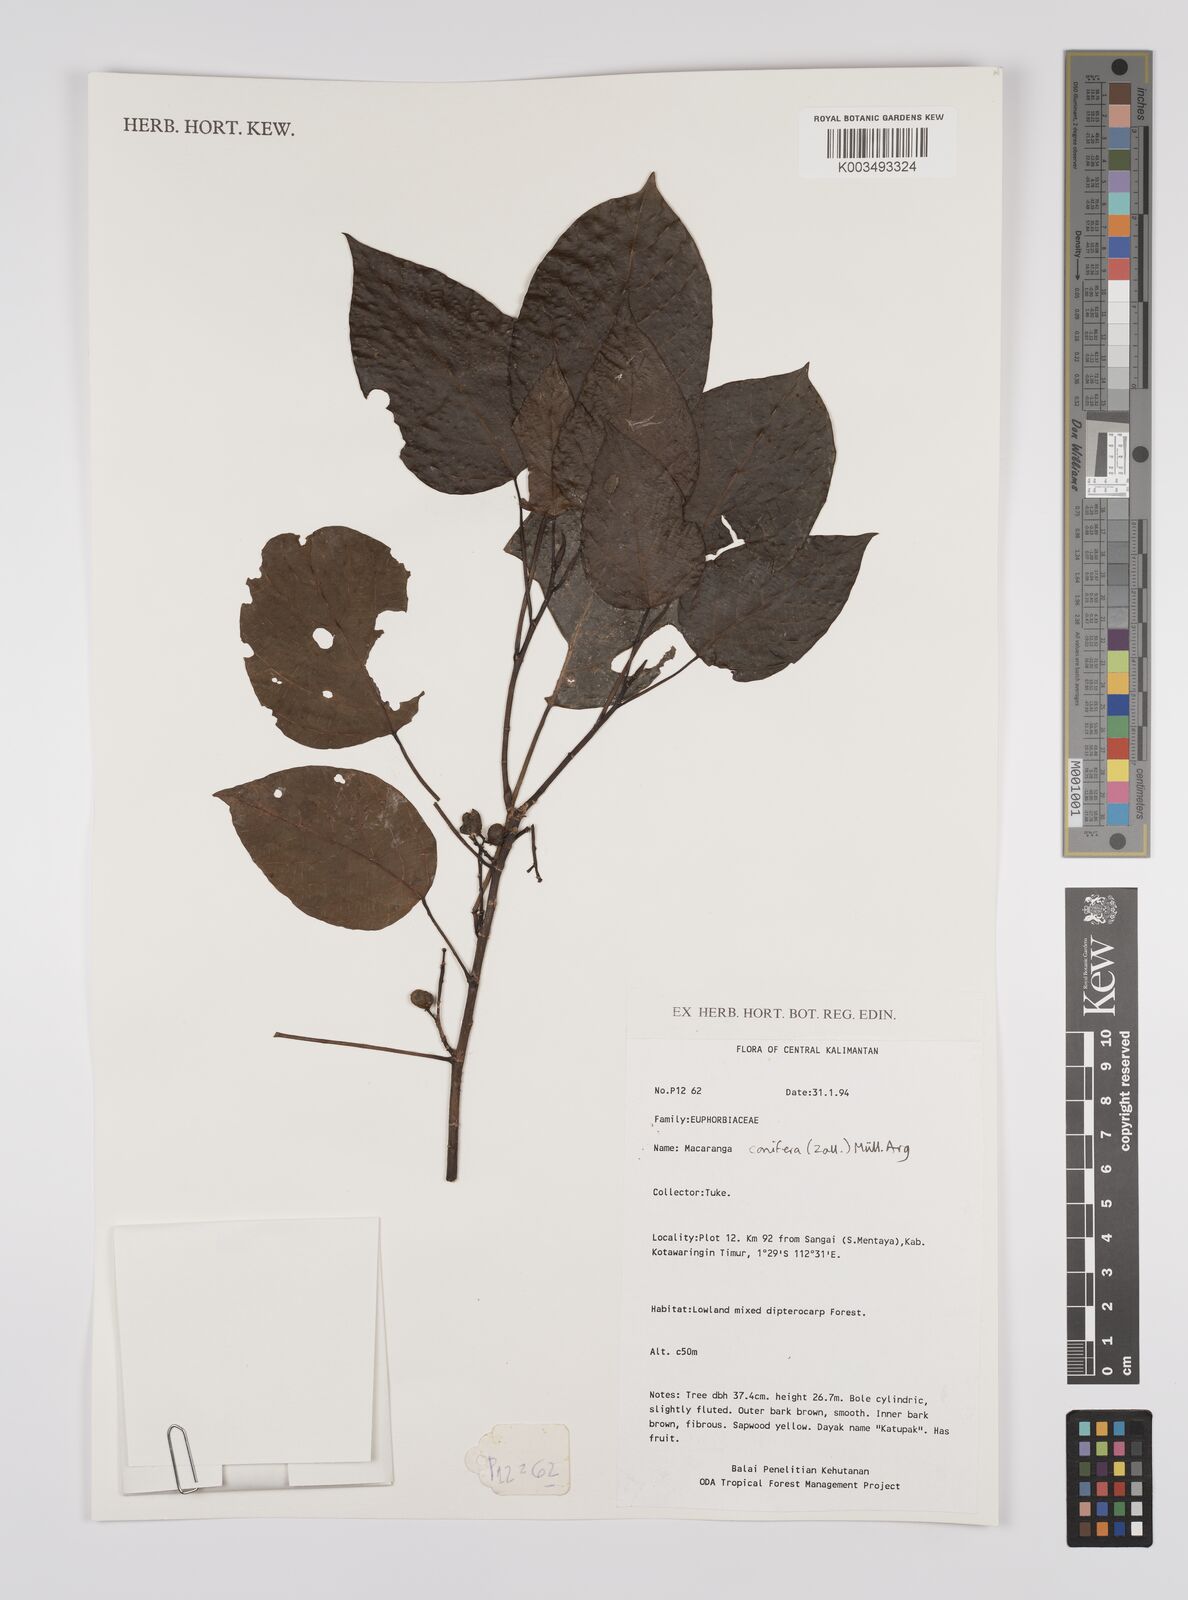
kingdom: Plantae
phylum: Tracheophyta
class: Magnoliopsida
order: Malpighiales
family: Euphorbiaceae
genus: Macaranga
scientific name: Macaranga conifera
